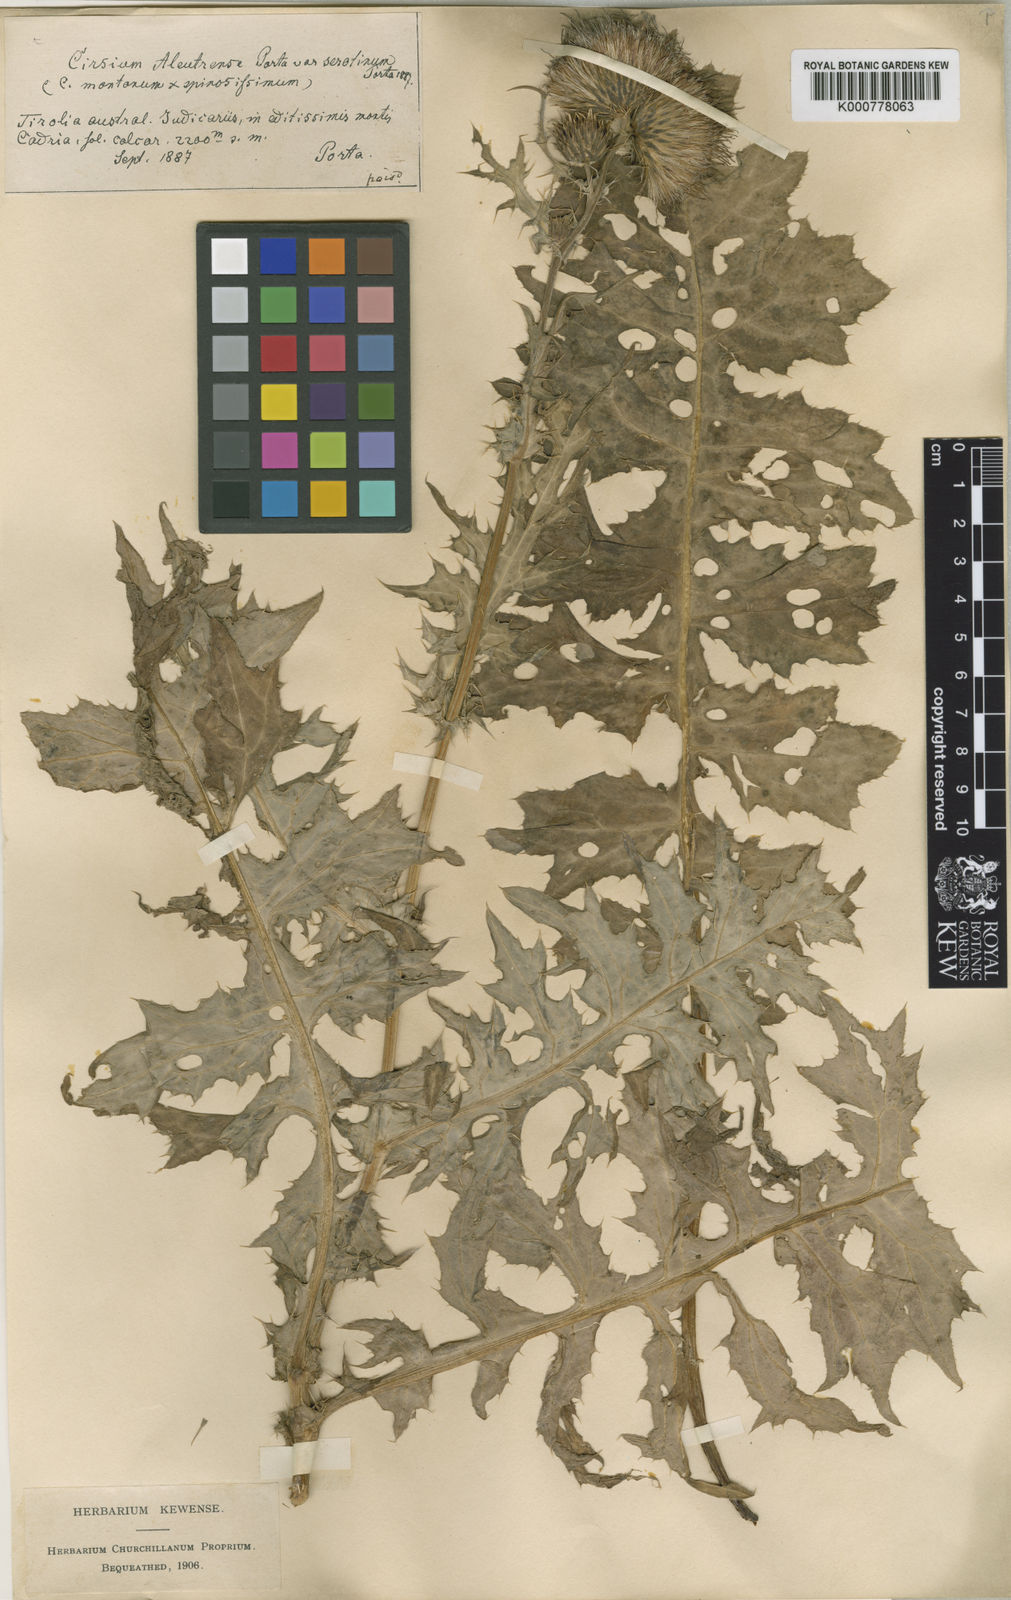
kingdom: Plantae
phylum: Tracheophyta
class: Magnoliopsida
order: Asterales
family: Asteraceae
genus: Cirsium
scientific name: Cirsium
